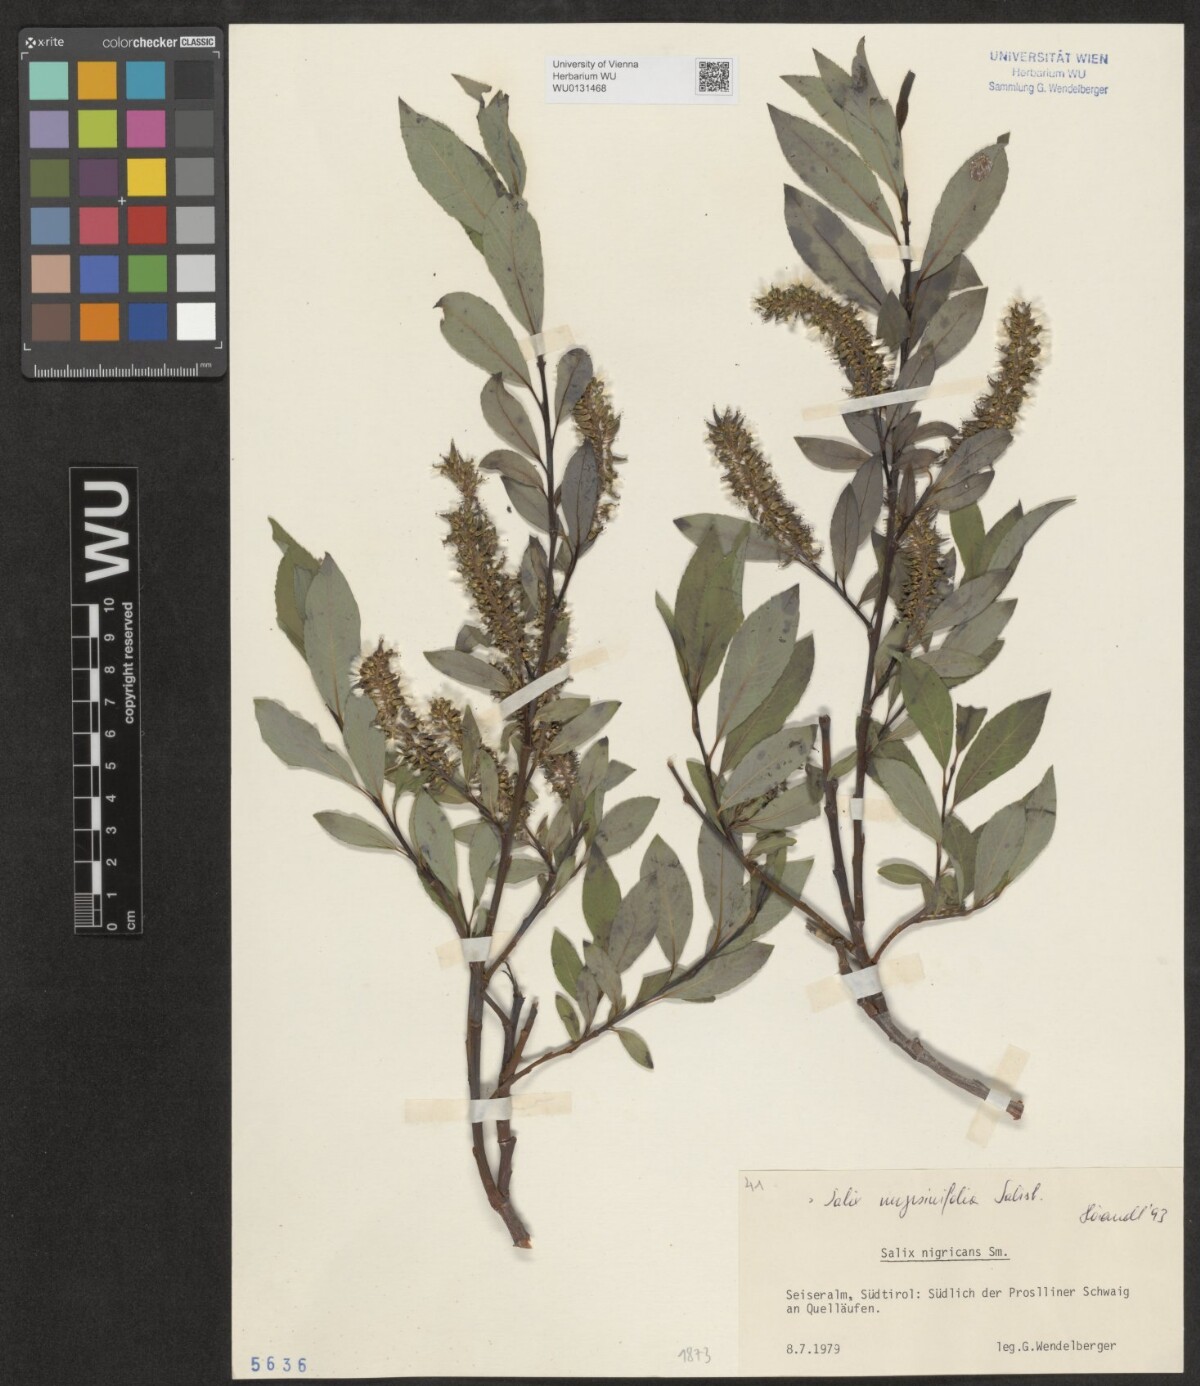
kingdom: Plantae
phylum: Tracheophyta
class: Magnoliopsida
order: Malpighiales
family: Salicaceae
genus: Salix
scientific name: Salix myrsinifolia
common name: Dark-leaved willow
